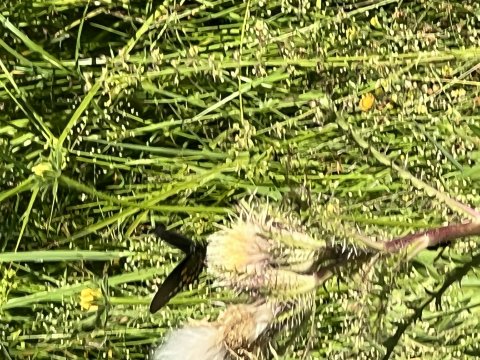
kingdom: Animalia
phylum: Arthropoda
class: Insecta
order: Lepidoptera
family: Papilionidae
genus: Battus
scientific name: Battus philenor
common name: Pipevine Swallowtail
